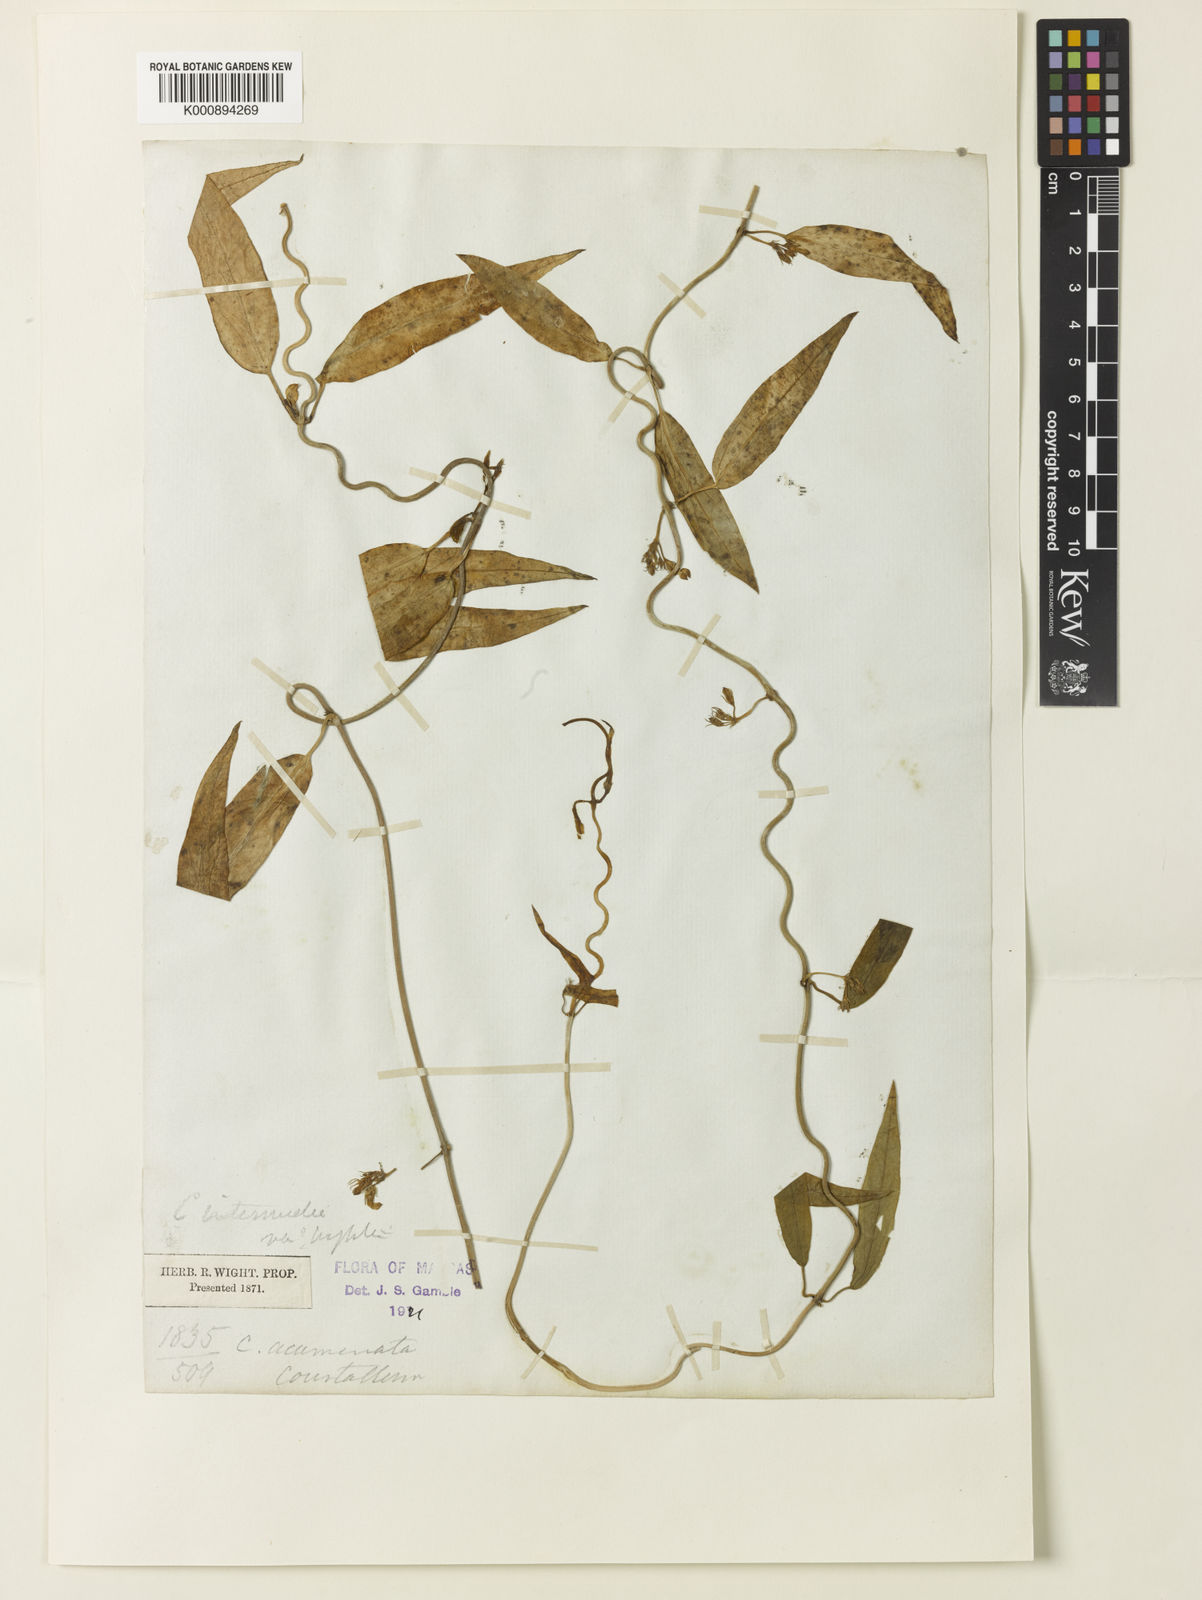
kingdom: Plantae
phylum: Tracheophyta
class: Magnoliopsida
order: Gentianales
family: Apocynaceae
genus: Ceropegia
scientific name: Ceropegia omissa
